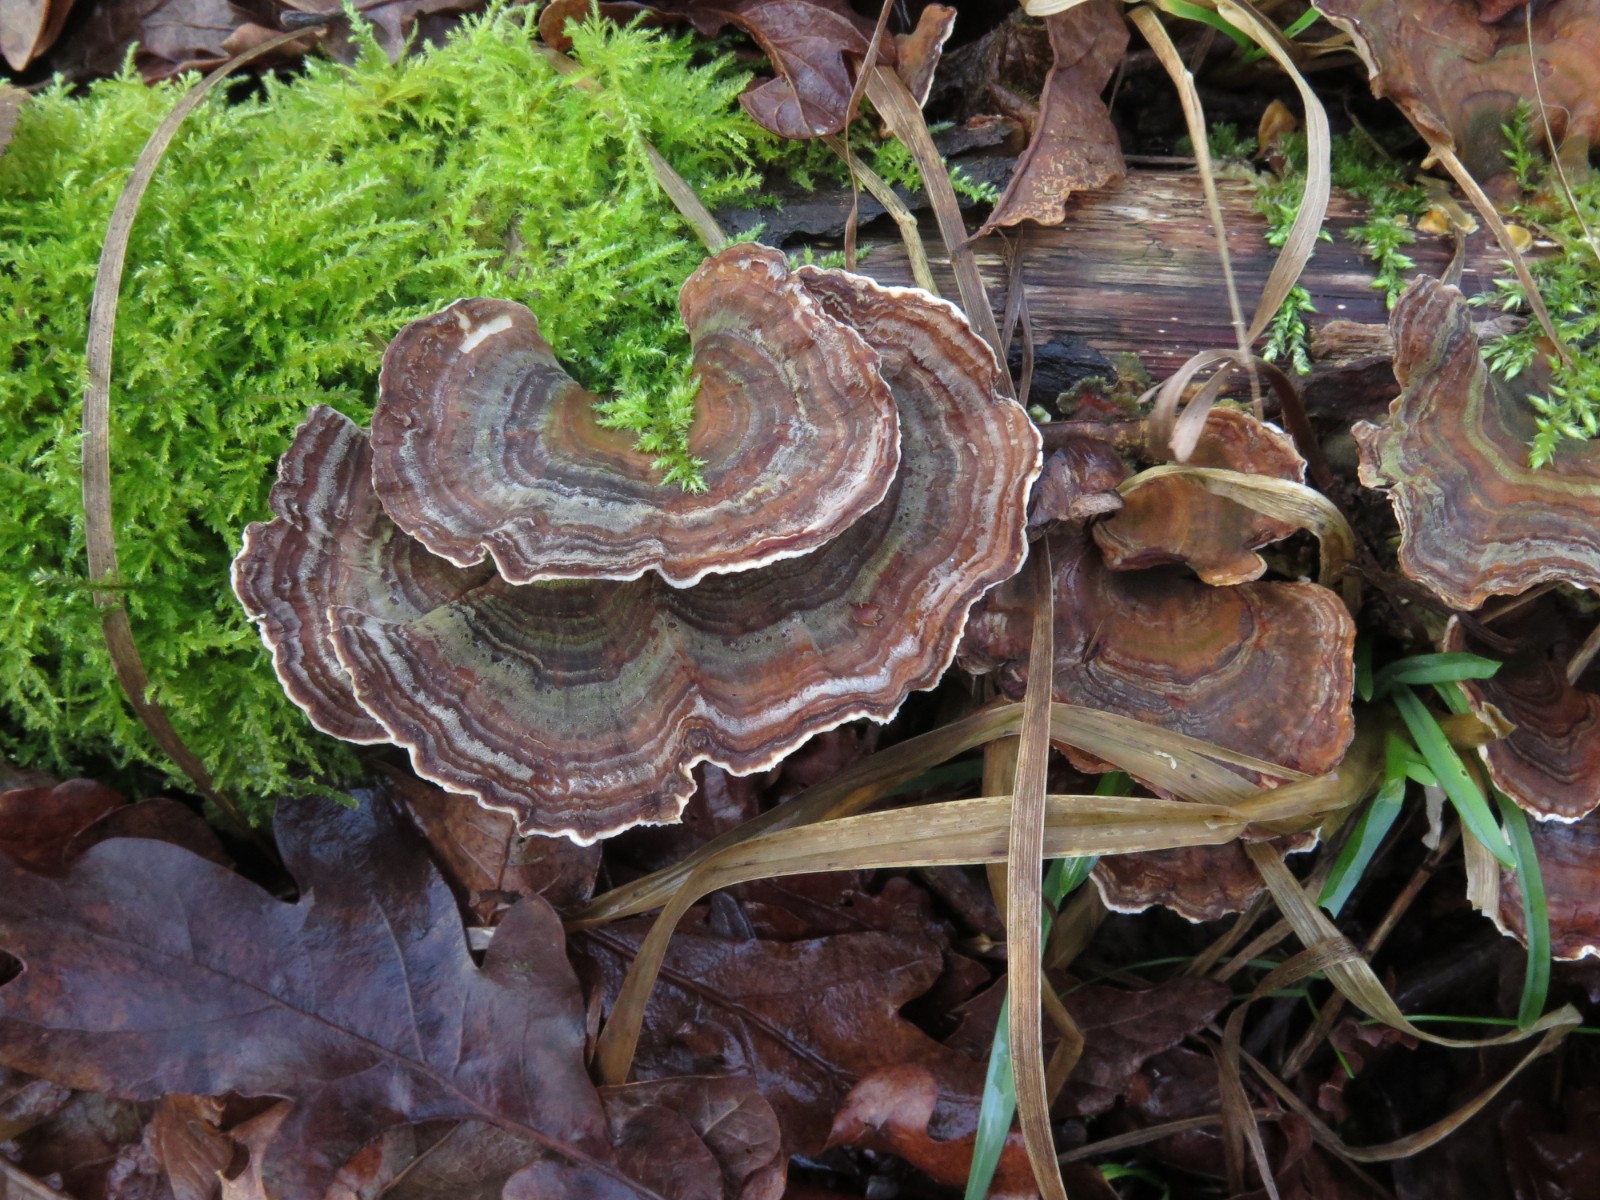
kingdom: Fungi
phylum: Basidiomycota
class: Agaricomycetes
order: Russulales
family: Stereaceae
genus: Stereum
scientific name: Stereum subtomentosum
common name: smuk lædersvamp
